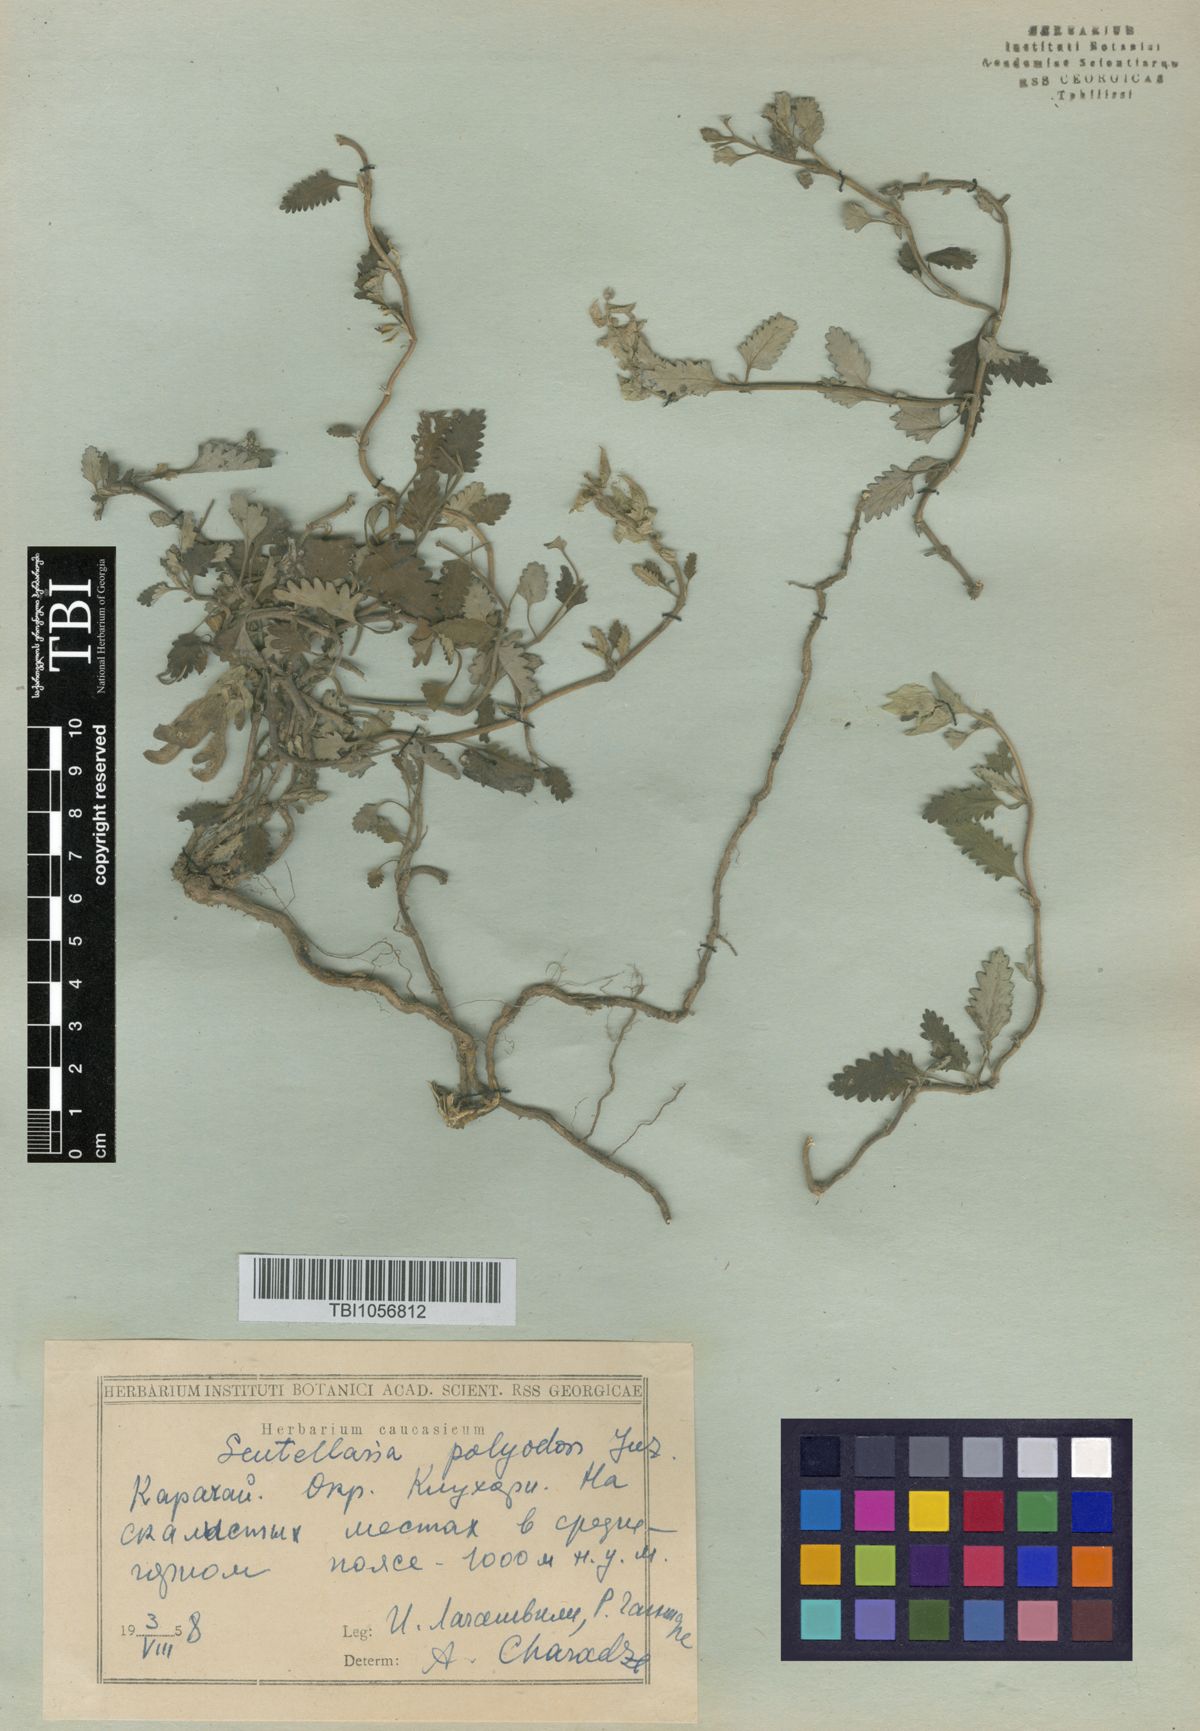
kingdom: Plantae
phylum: Tracheophyta
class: Magnoliopsida
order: Lamiales
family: Lamiaceae
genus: Scutellaria
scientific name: Scutellaria caucasica
